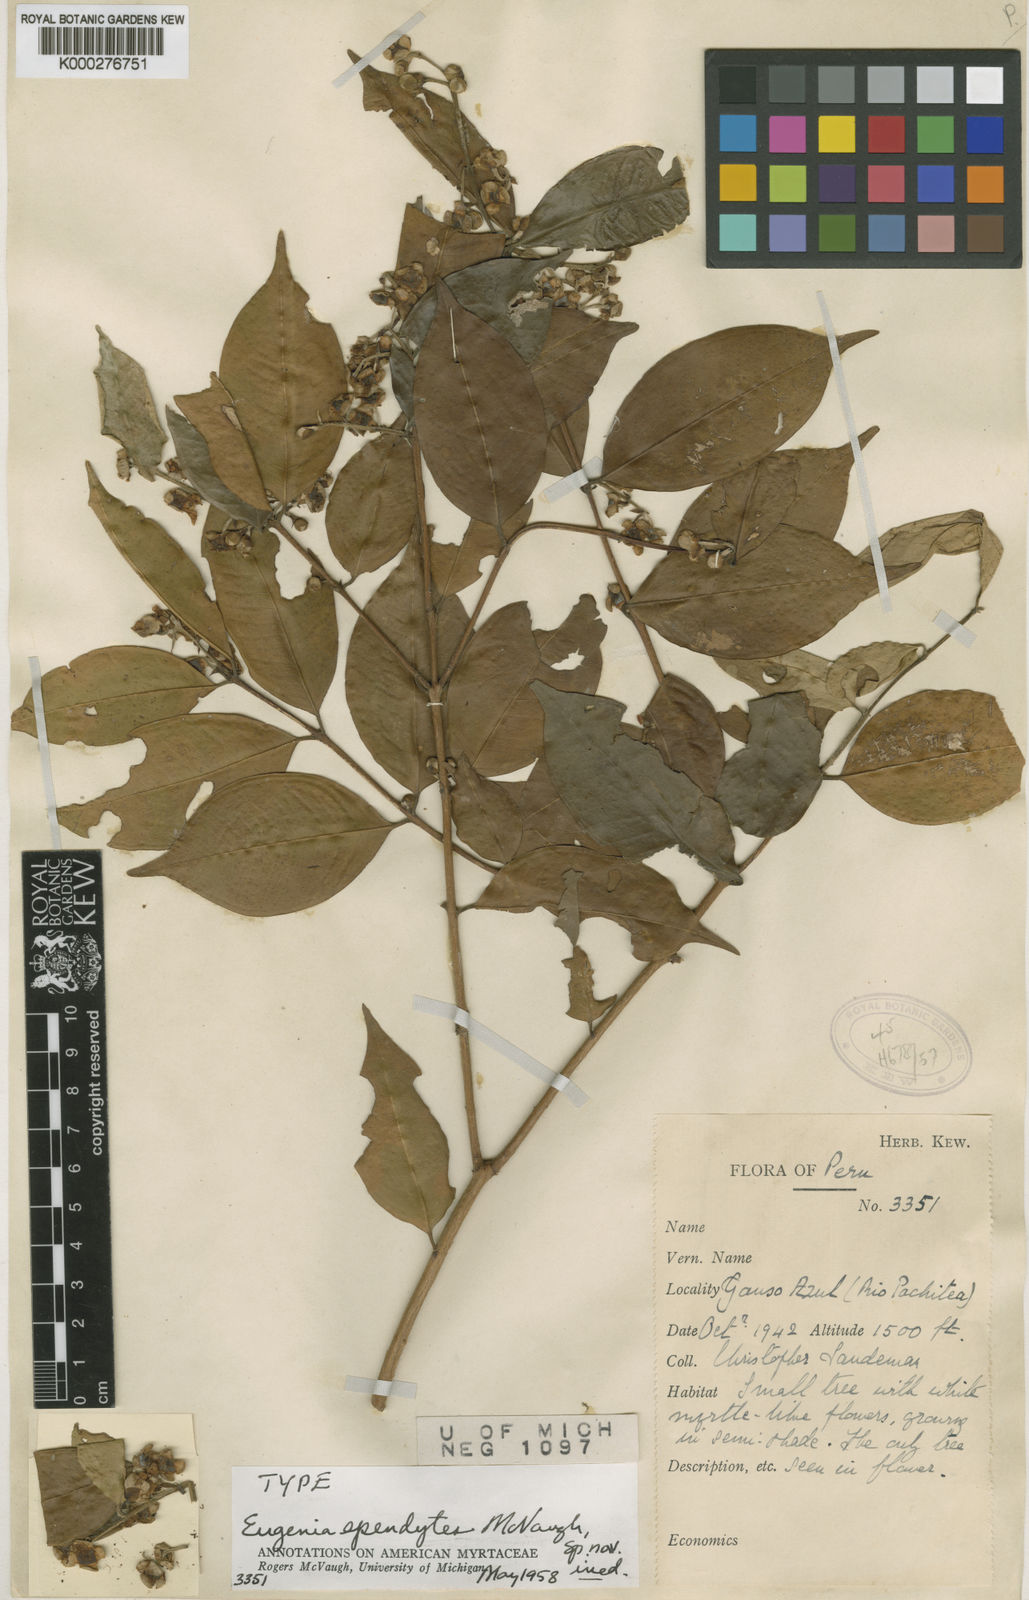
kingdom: Plantae
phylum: Tracheophyta
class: Magnoliopsida
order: Myrtales
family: Myrtaceae
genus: Eugenia
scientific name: Eugenia ependytes
